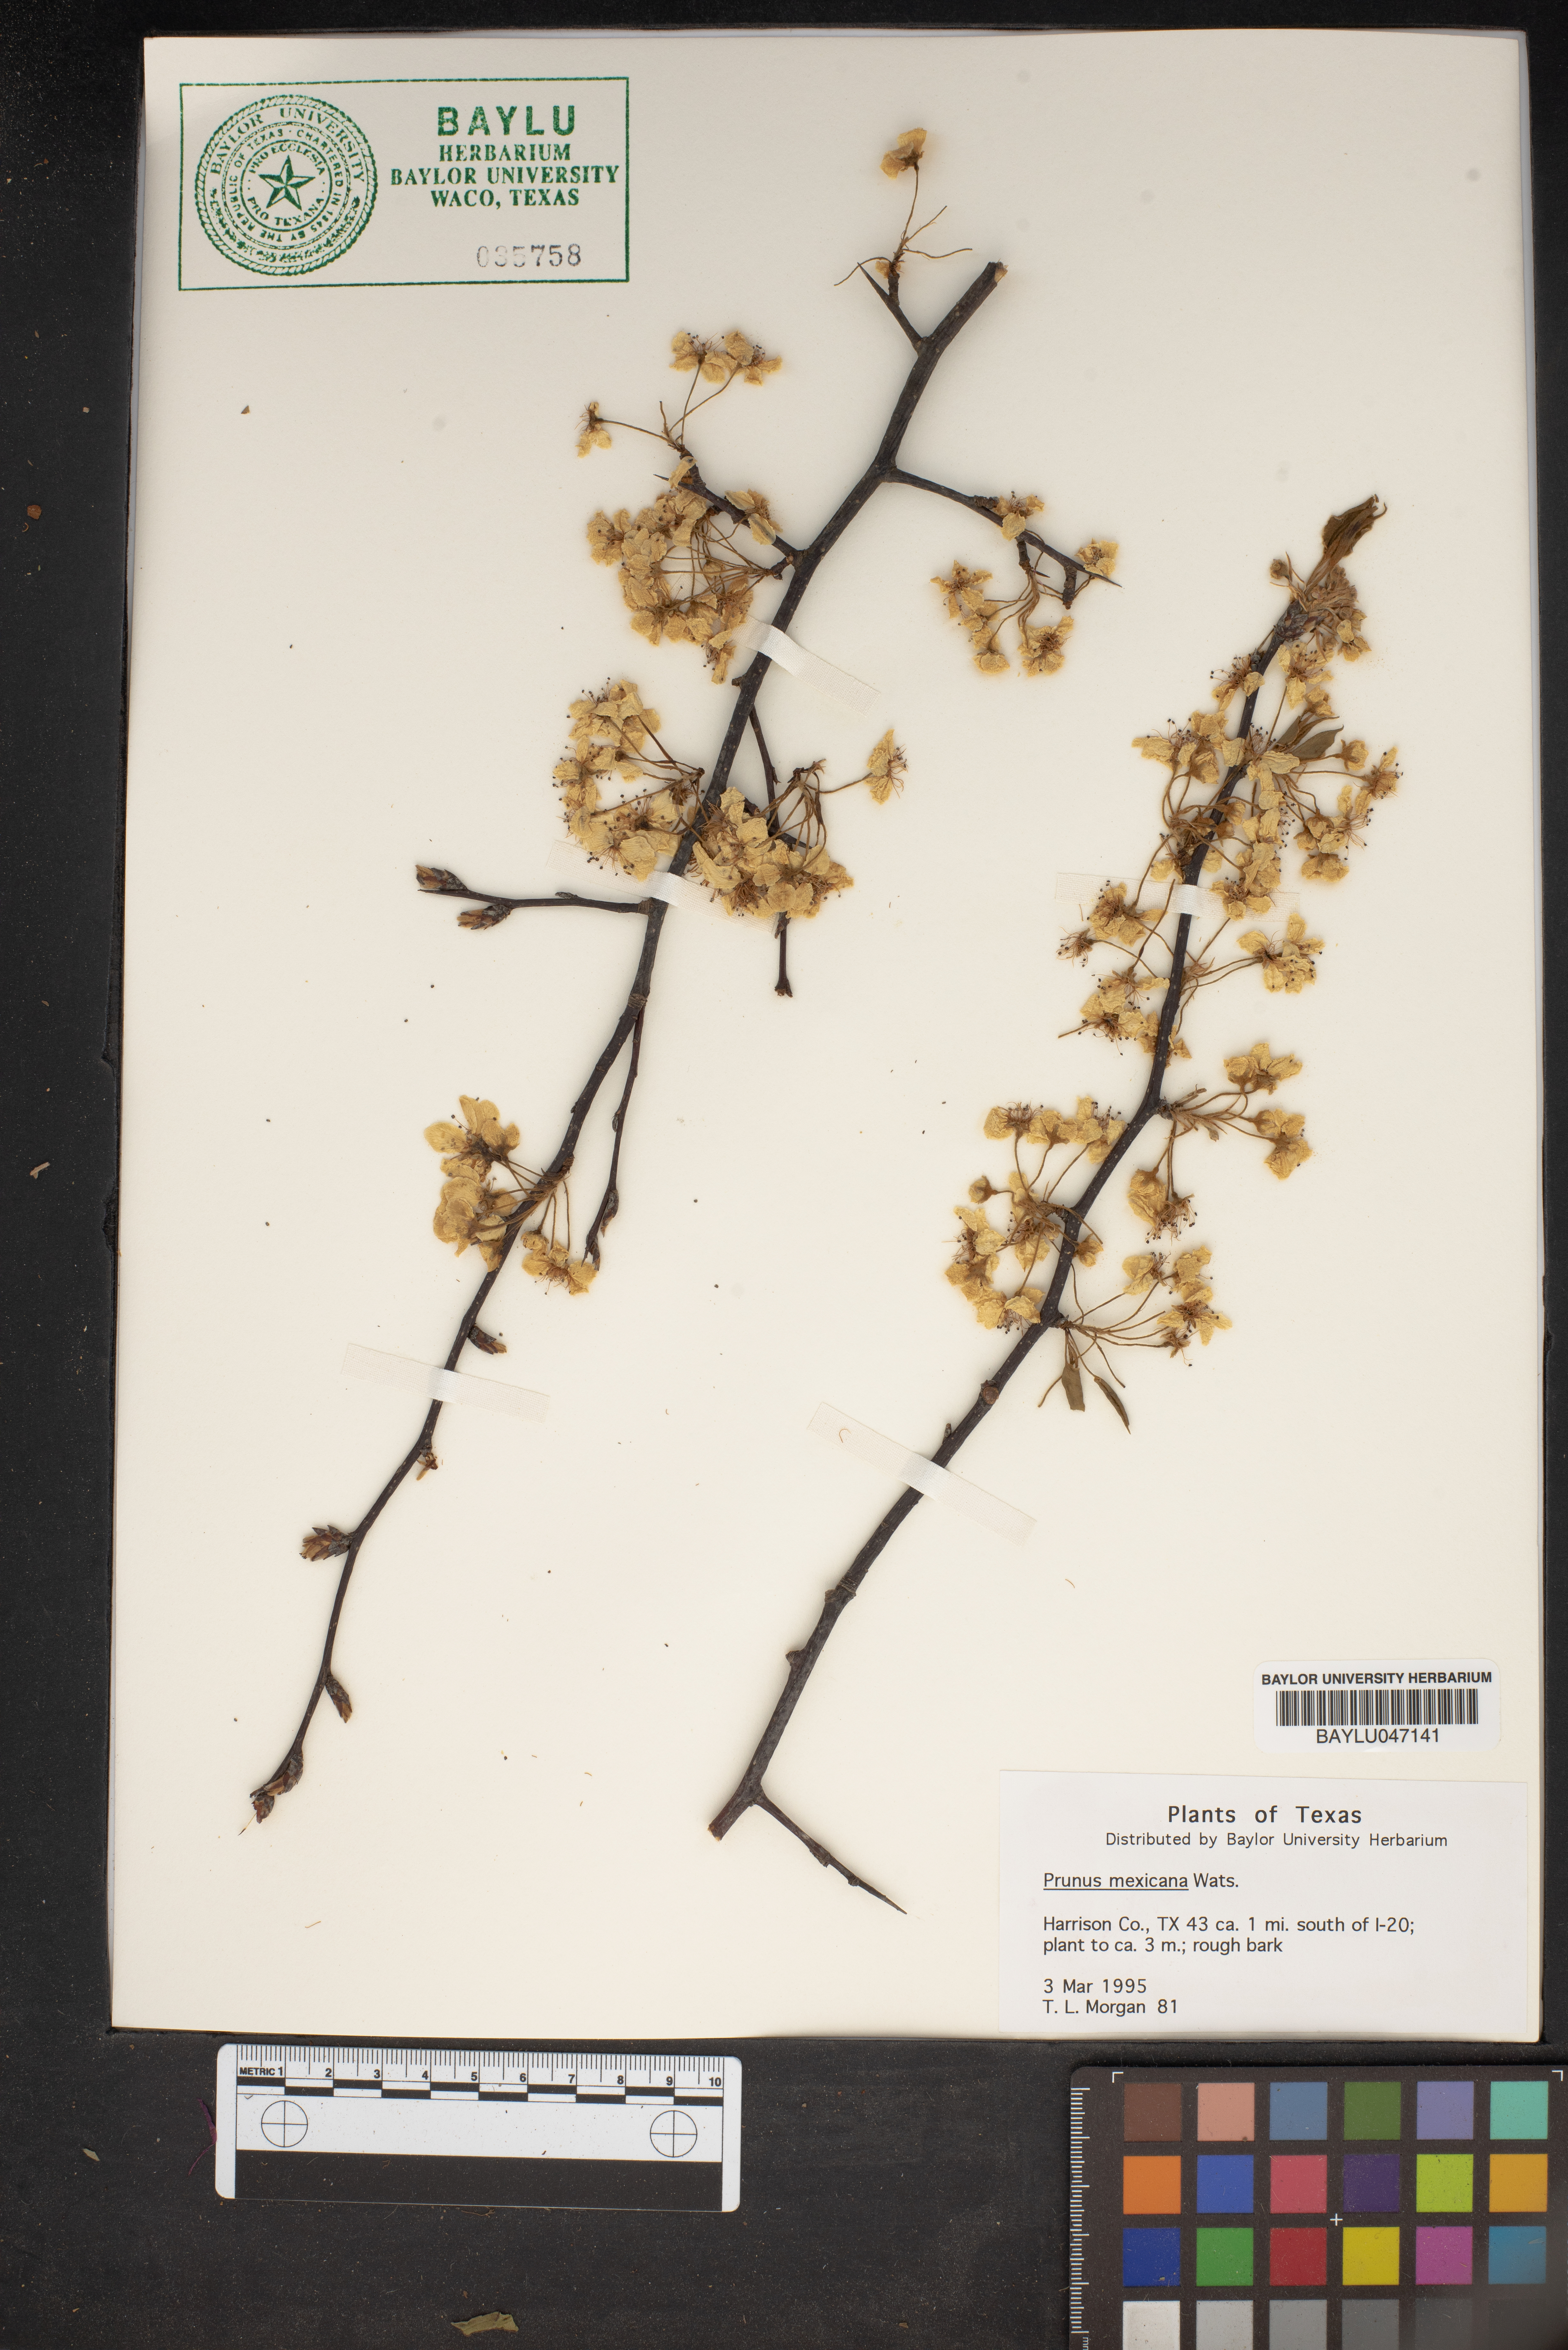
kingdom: Plantae
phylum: Tracheophyta
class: Magnoliopsida
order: Rosales
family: Rosaceae
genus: Prunus
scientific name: Prunus mexicana
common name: Mexican plum
